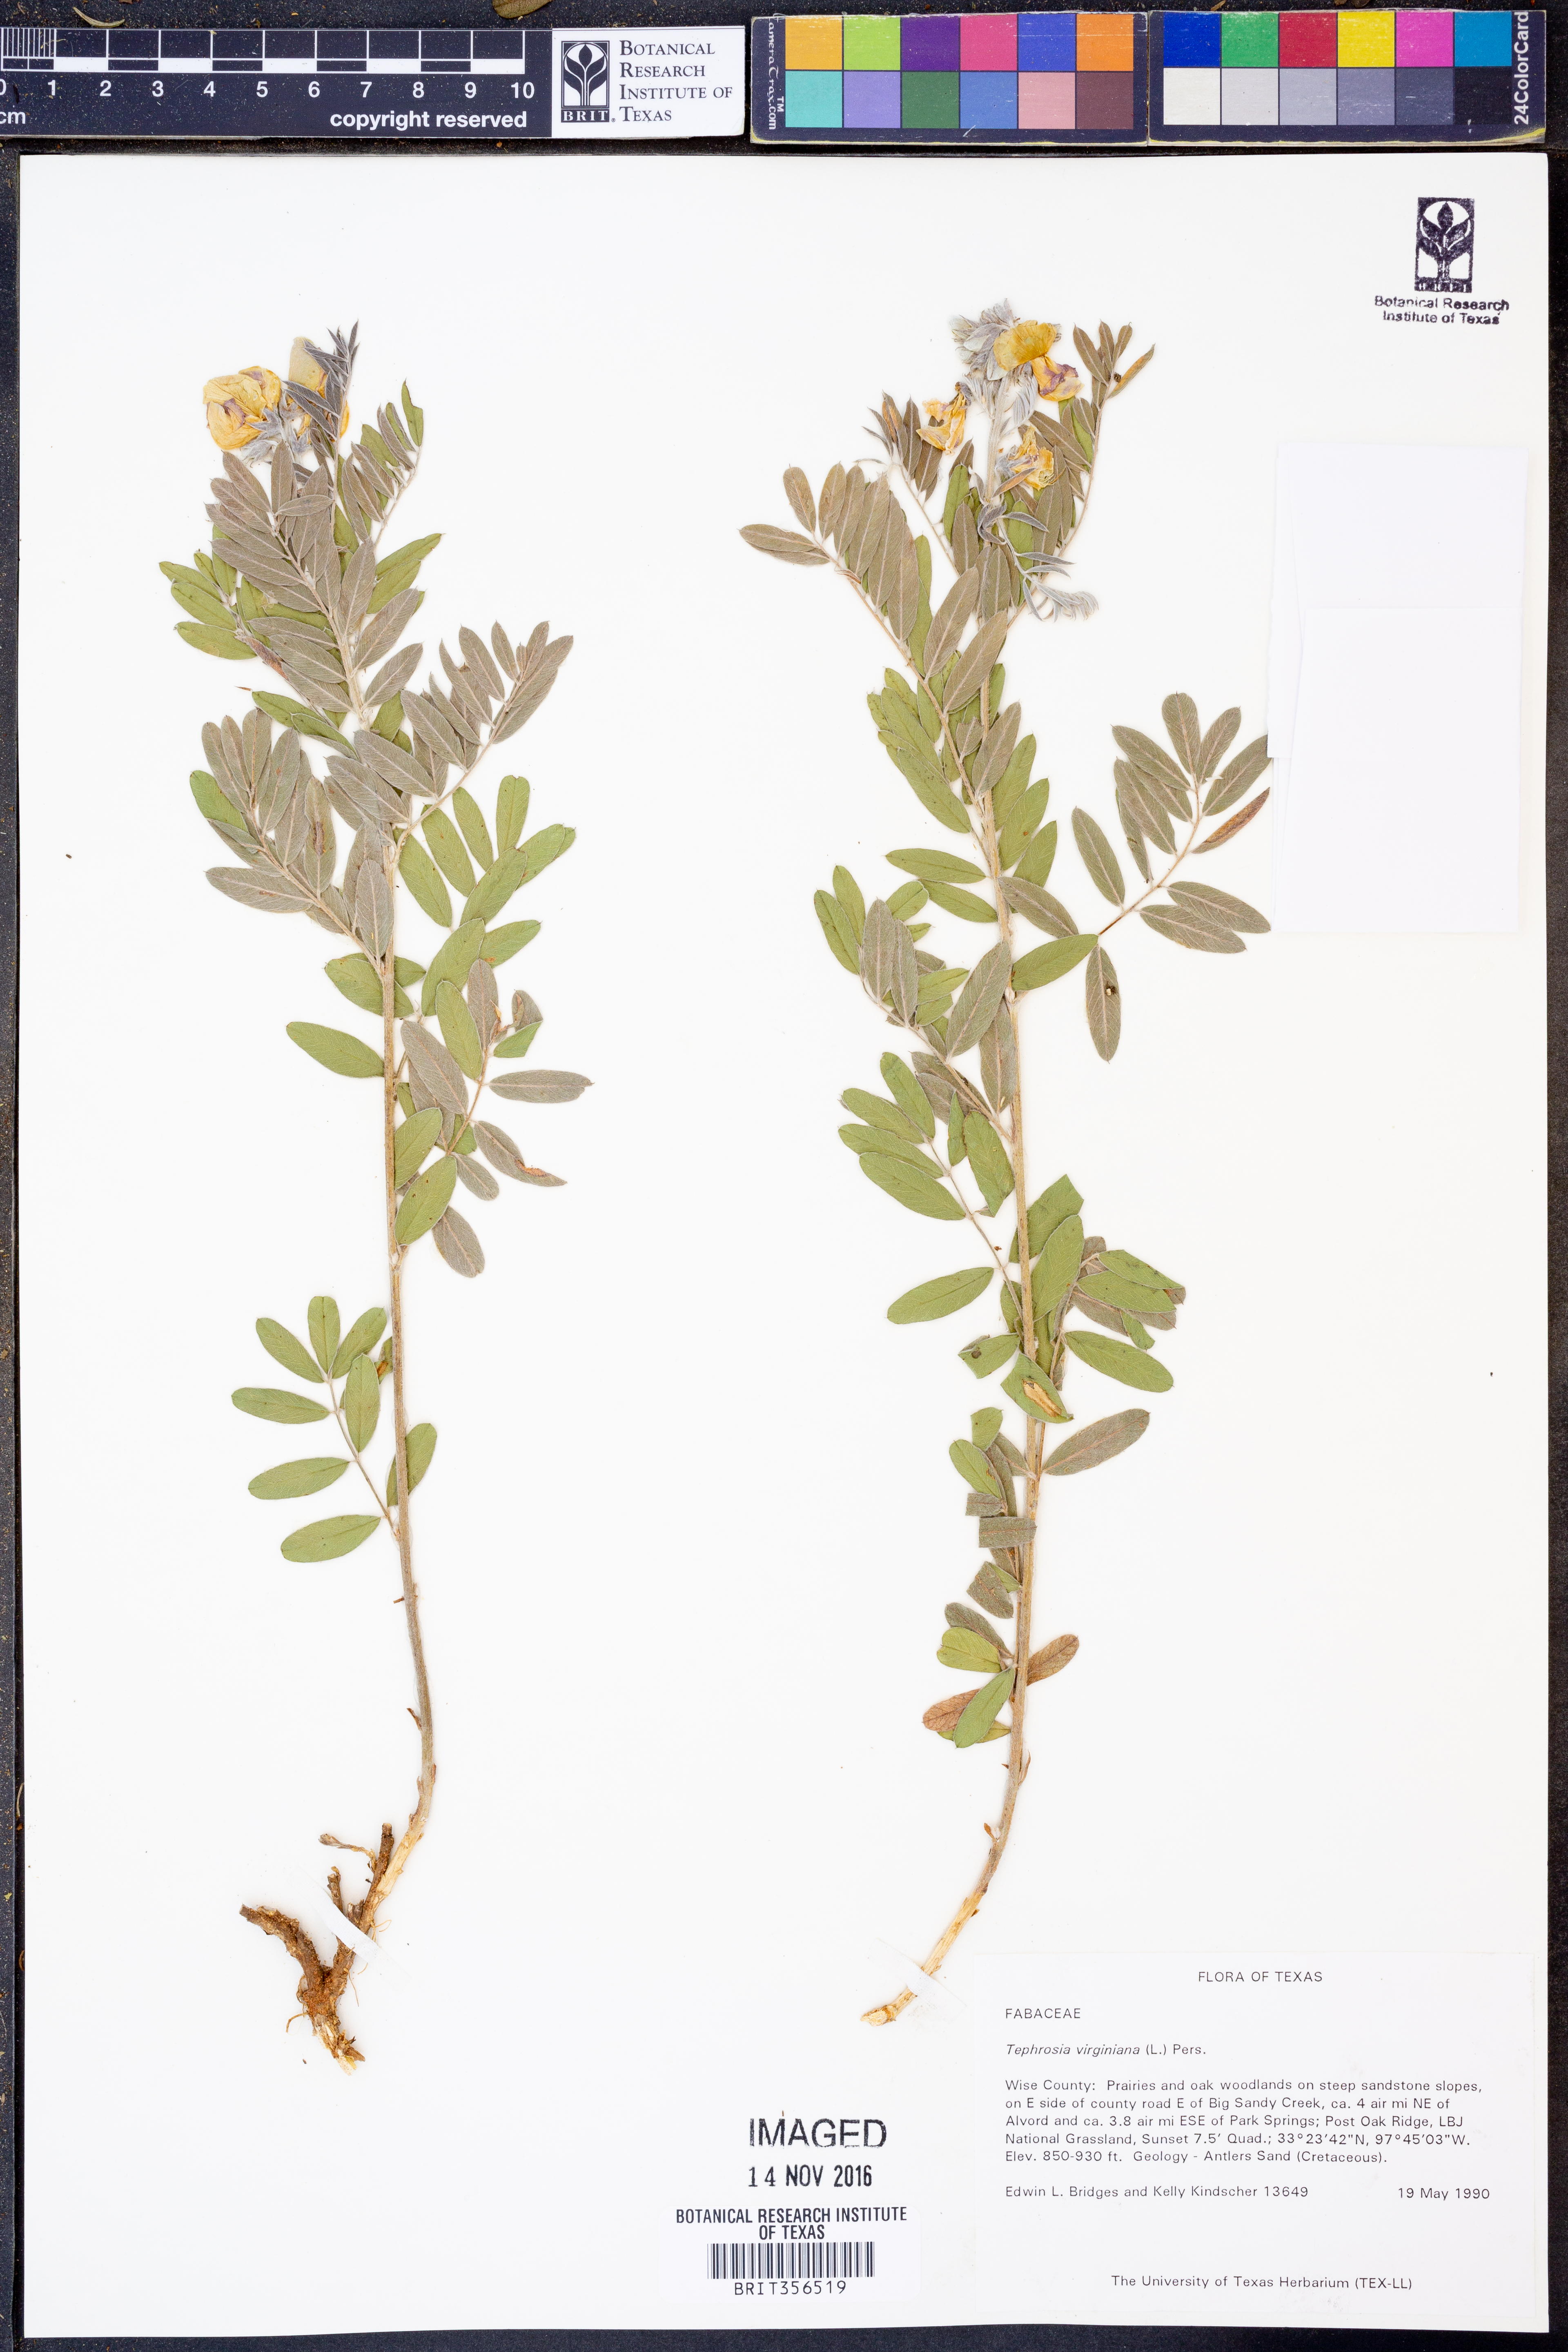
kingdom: Plantae
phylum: Tracheophyta
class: Magnoliopsida
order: Fabales
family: Fabaceae
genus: Tephrosia
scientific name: Tephrosia virginiana
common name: Rabbit-pea
